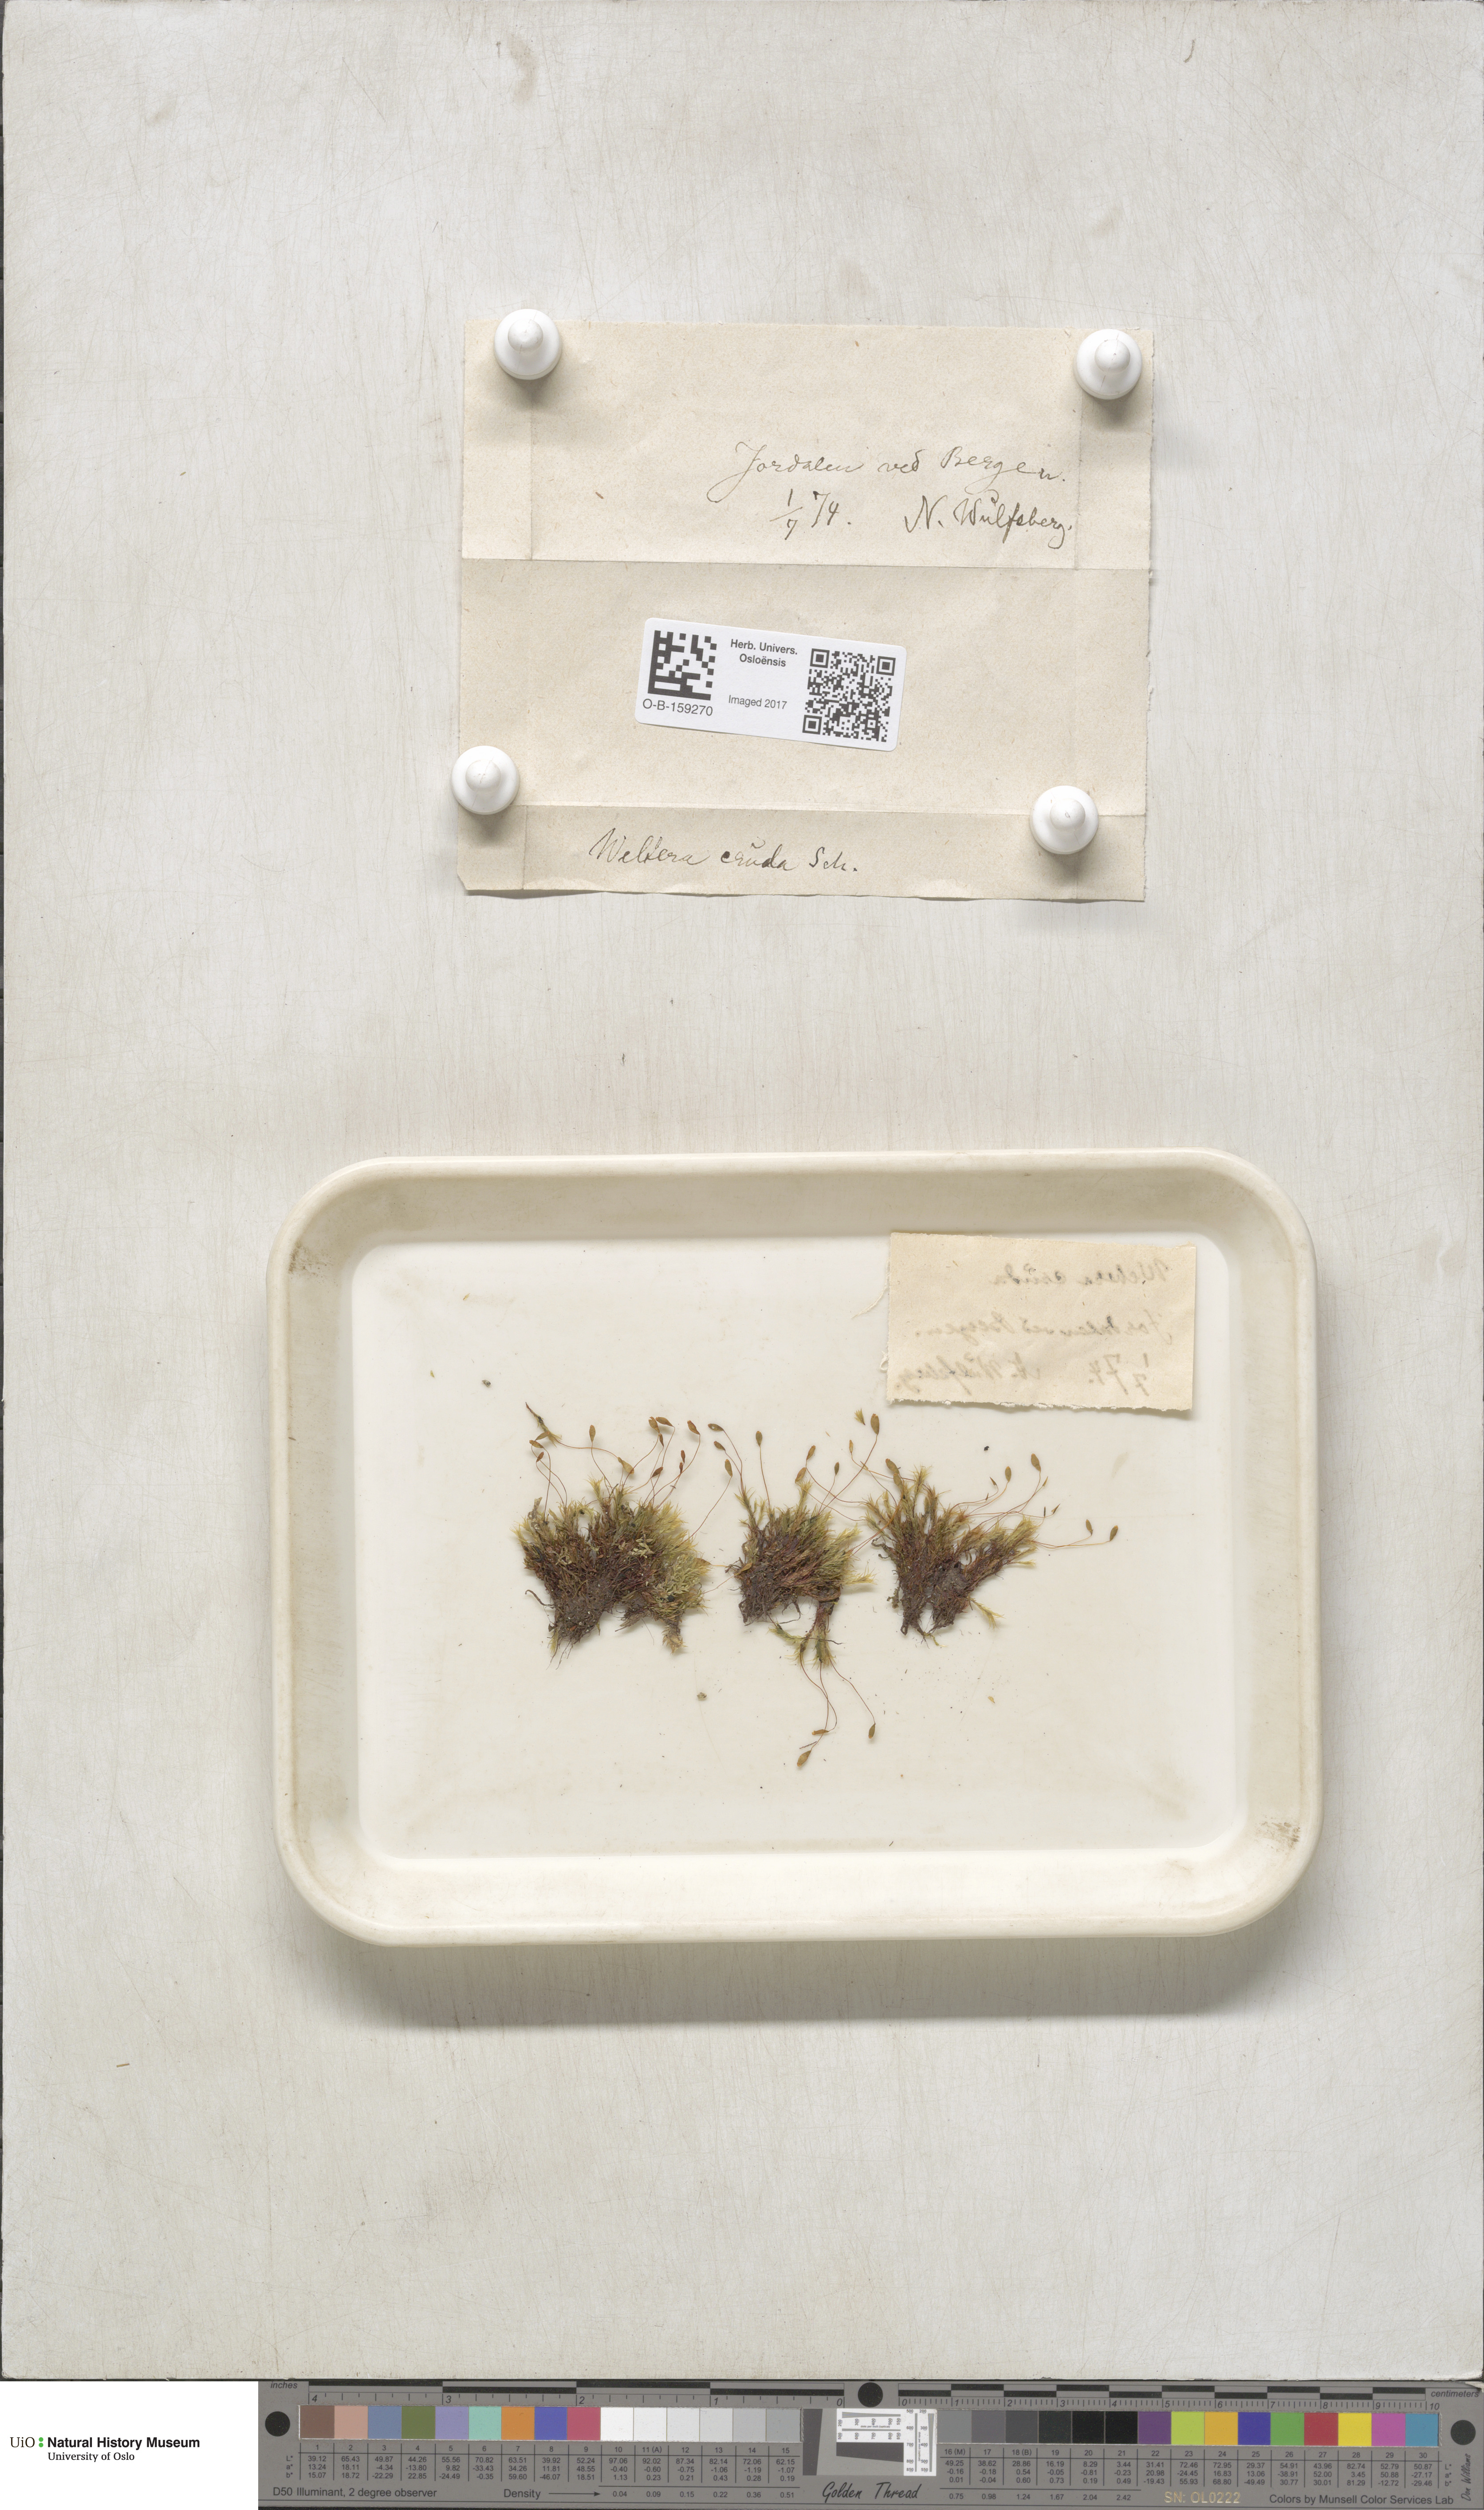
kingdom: Plantae
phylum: Bryophyta
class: Bryopsida
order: Bryales
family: Mniaceae
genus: Pohlia
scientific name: Pohlia cruda
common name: Opal nodding moss
